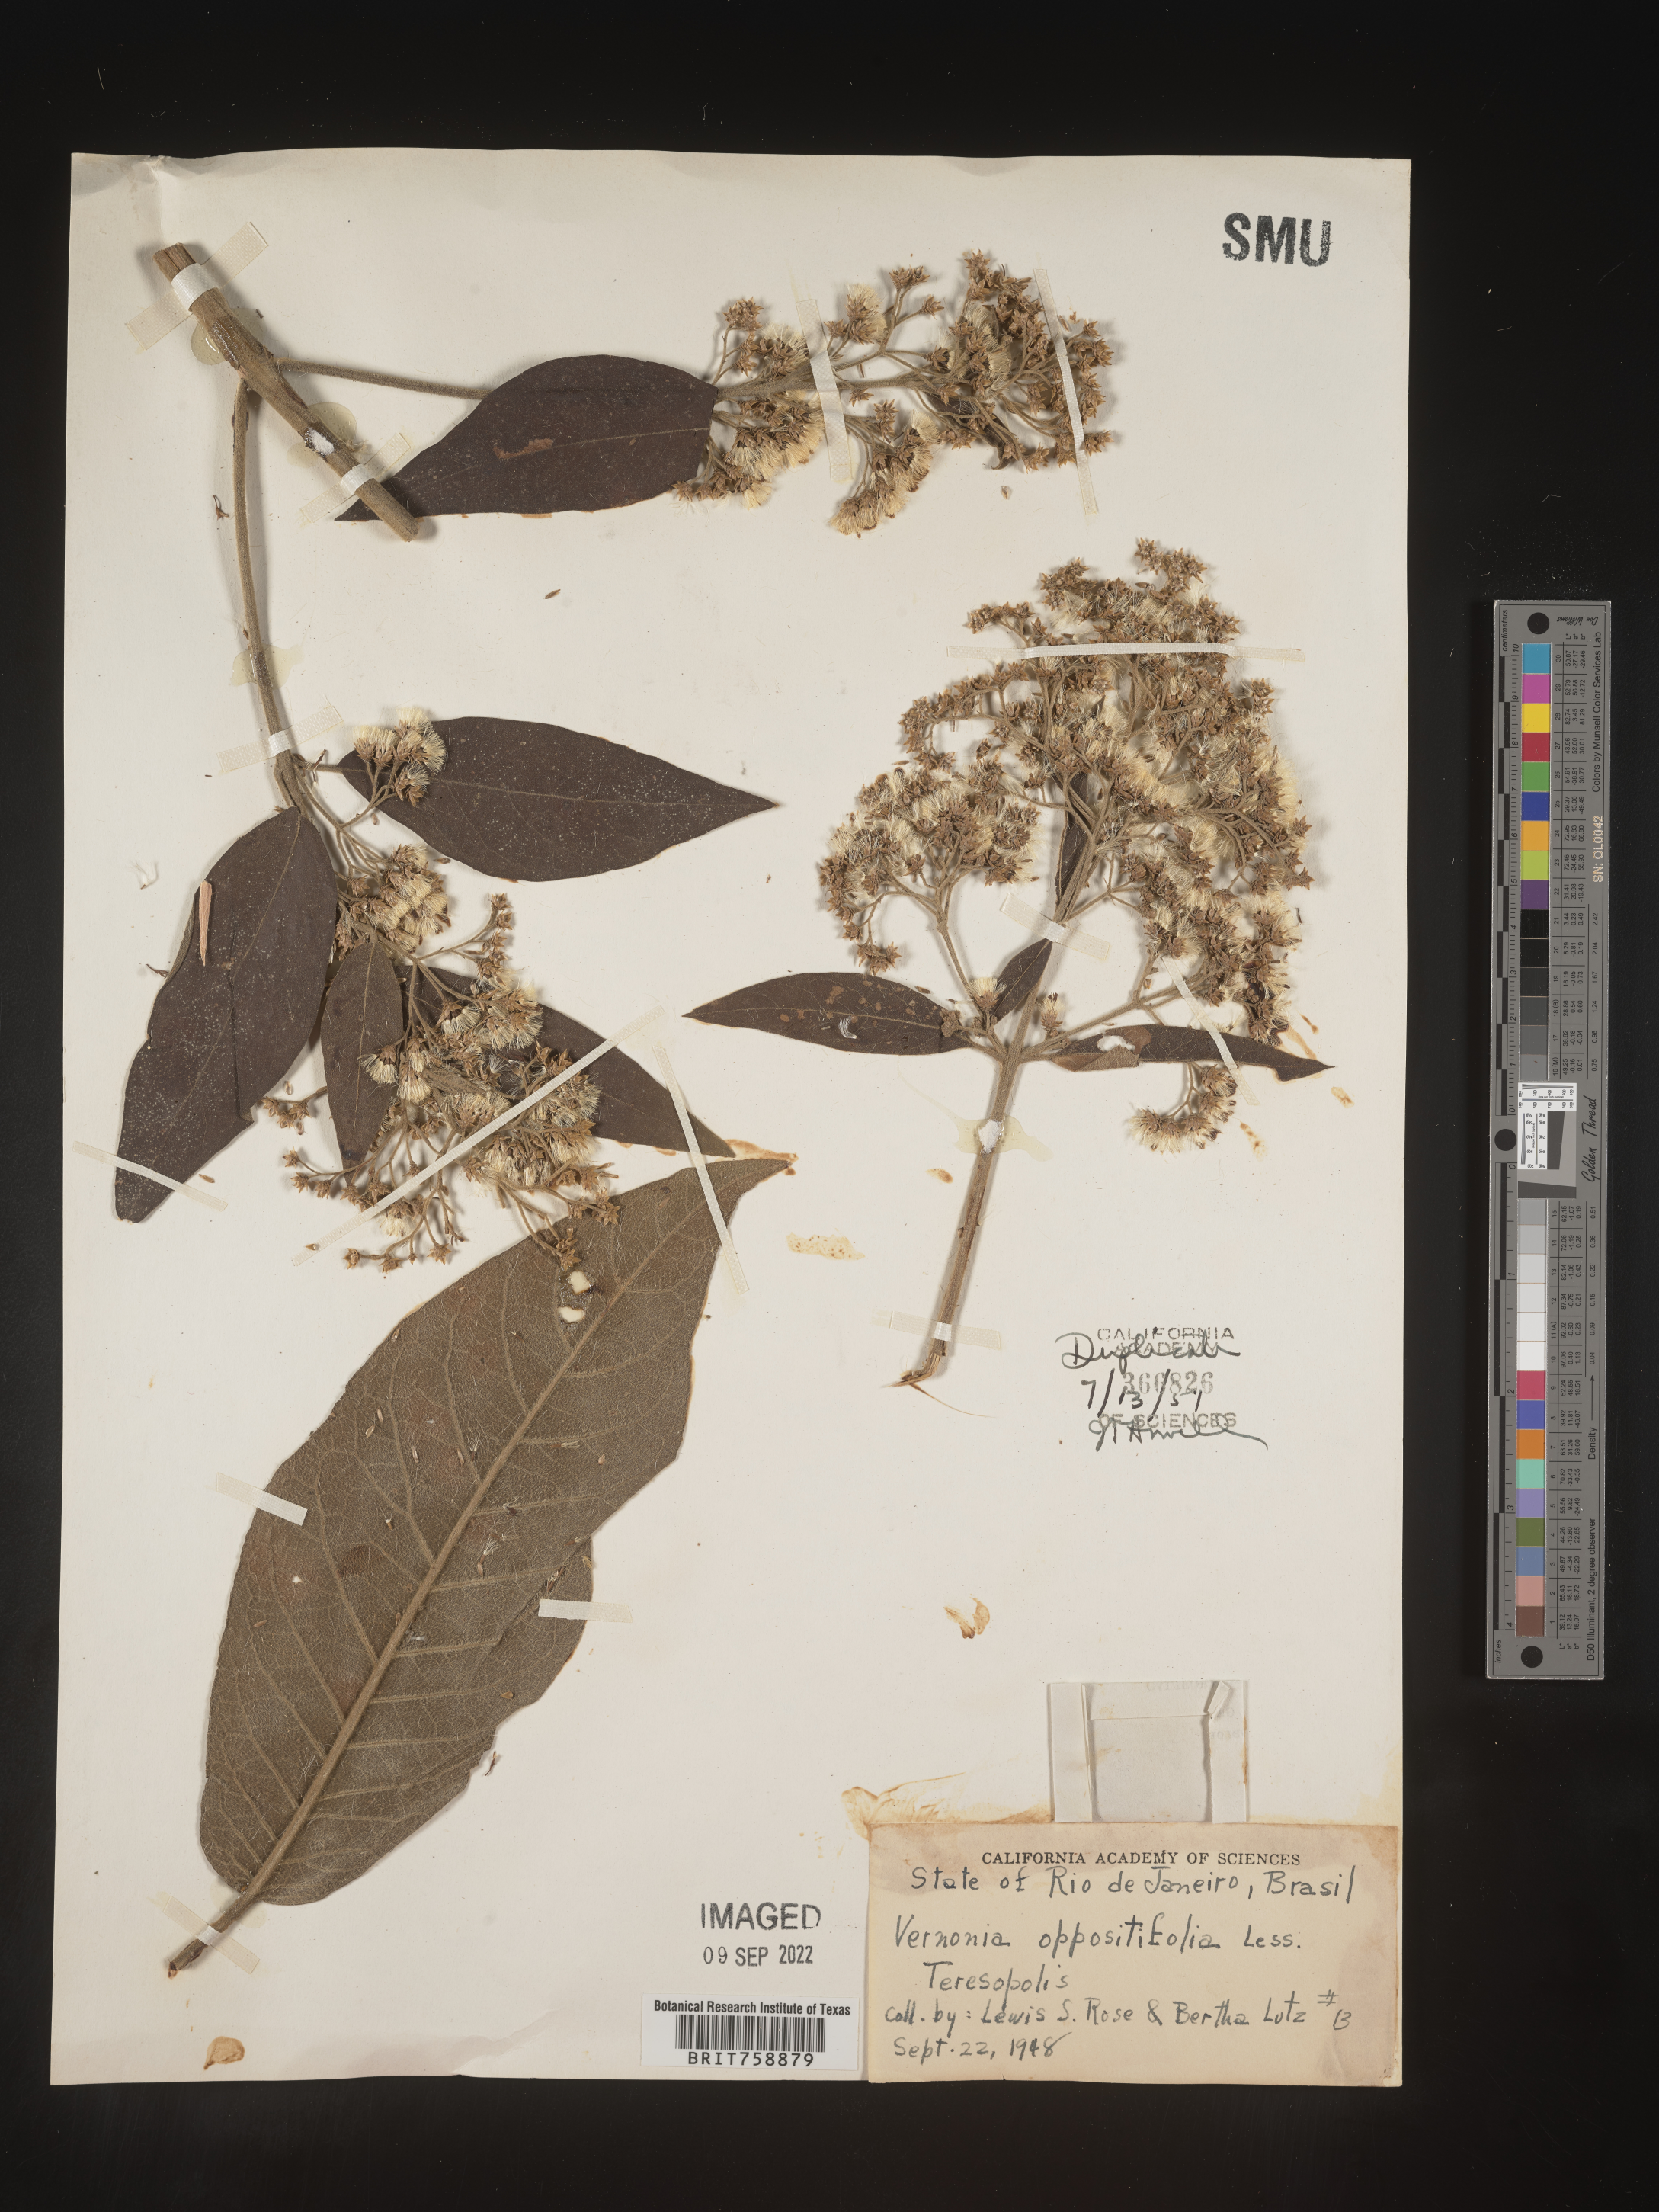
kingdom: Plantae
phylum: Tracheophyta
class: Magnoliopsida
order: Asterales
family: Asteraceae
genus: Vernonia
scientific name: Vernonia
